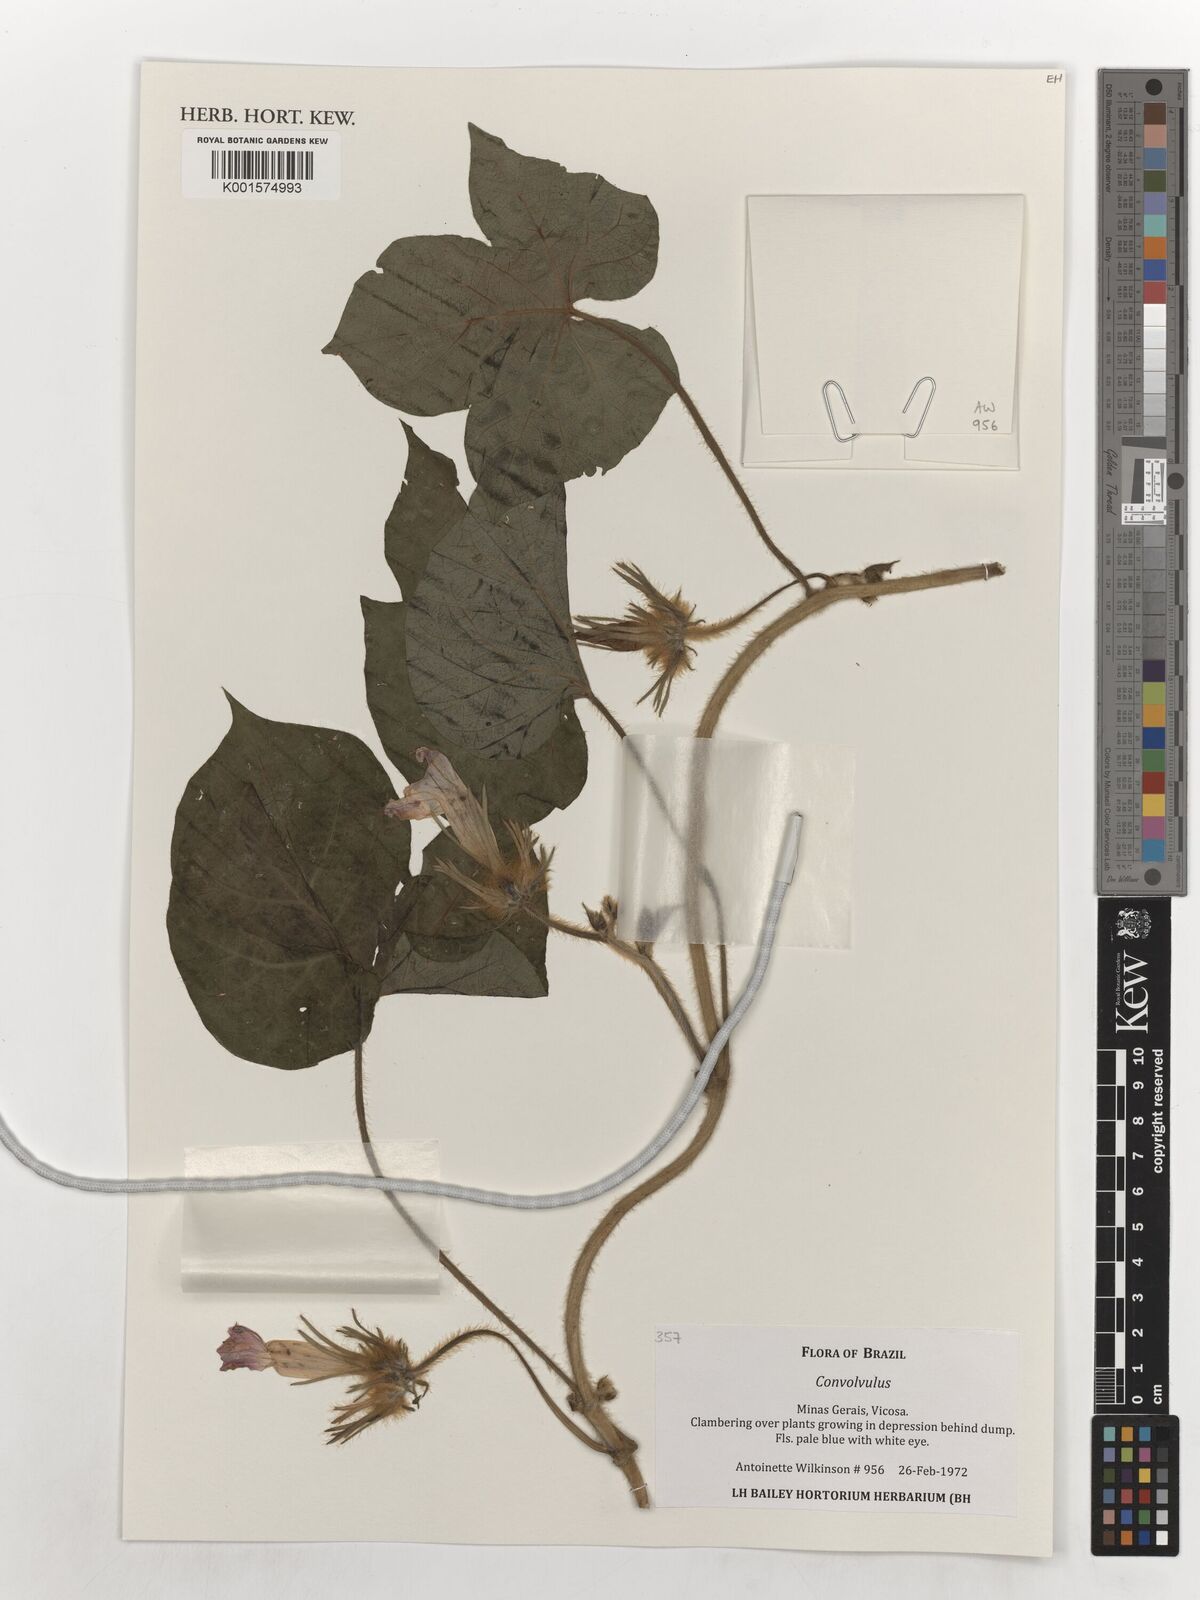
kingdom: Plantae
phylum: Tracheophyta
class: Magnoliopsida
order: Solanales
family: Convolvulaceae
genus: Convolvulus
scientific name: Convolvulus
